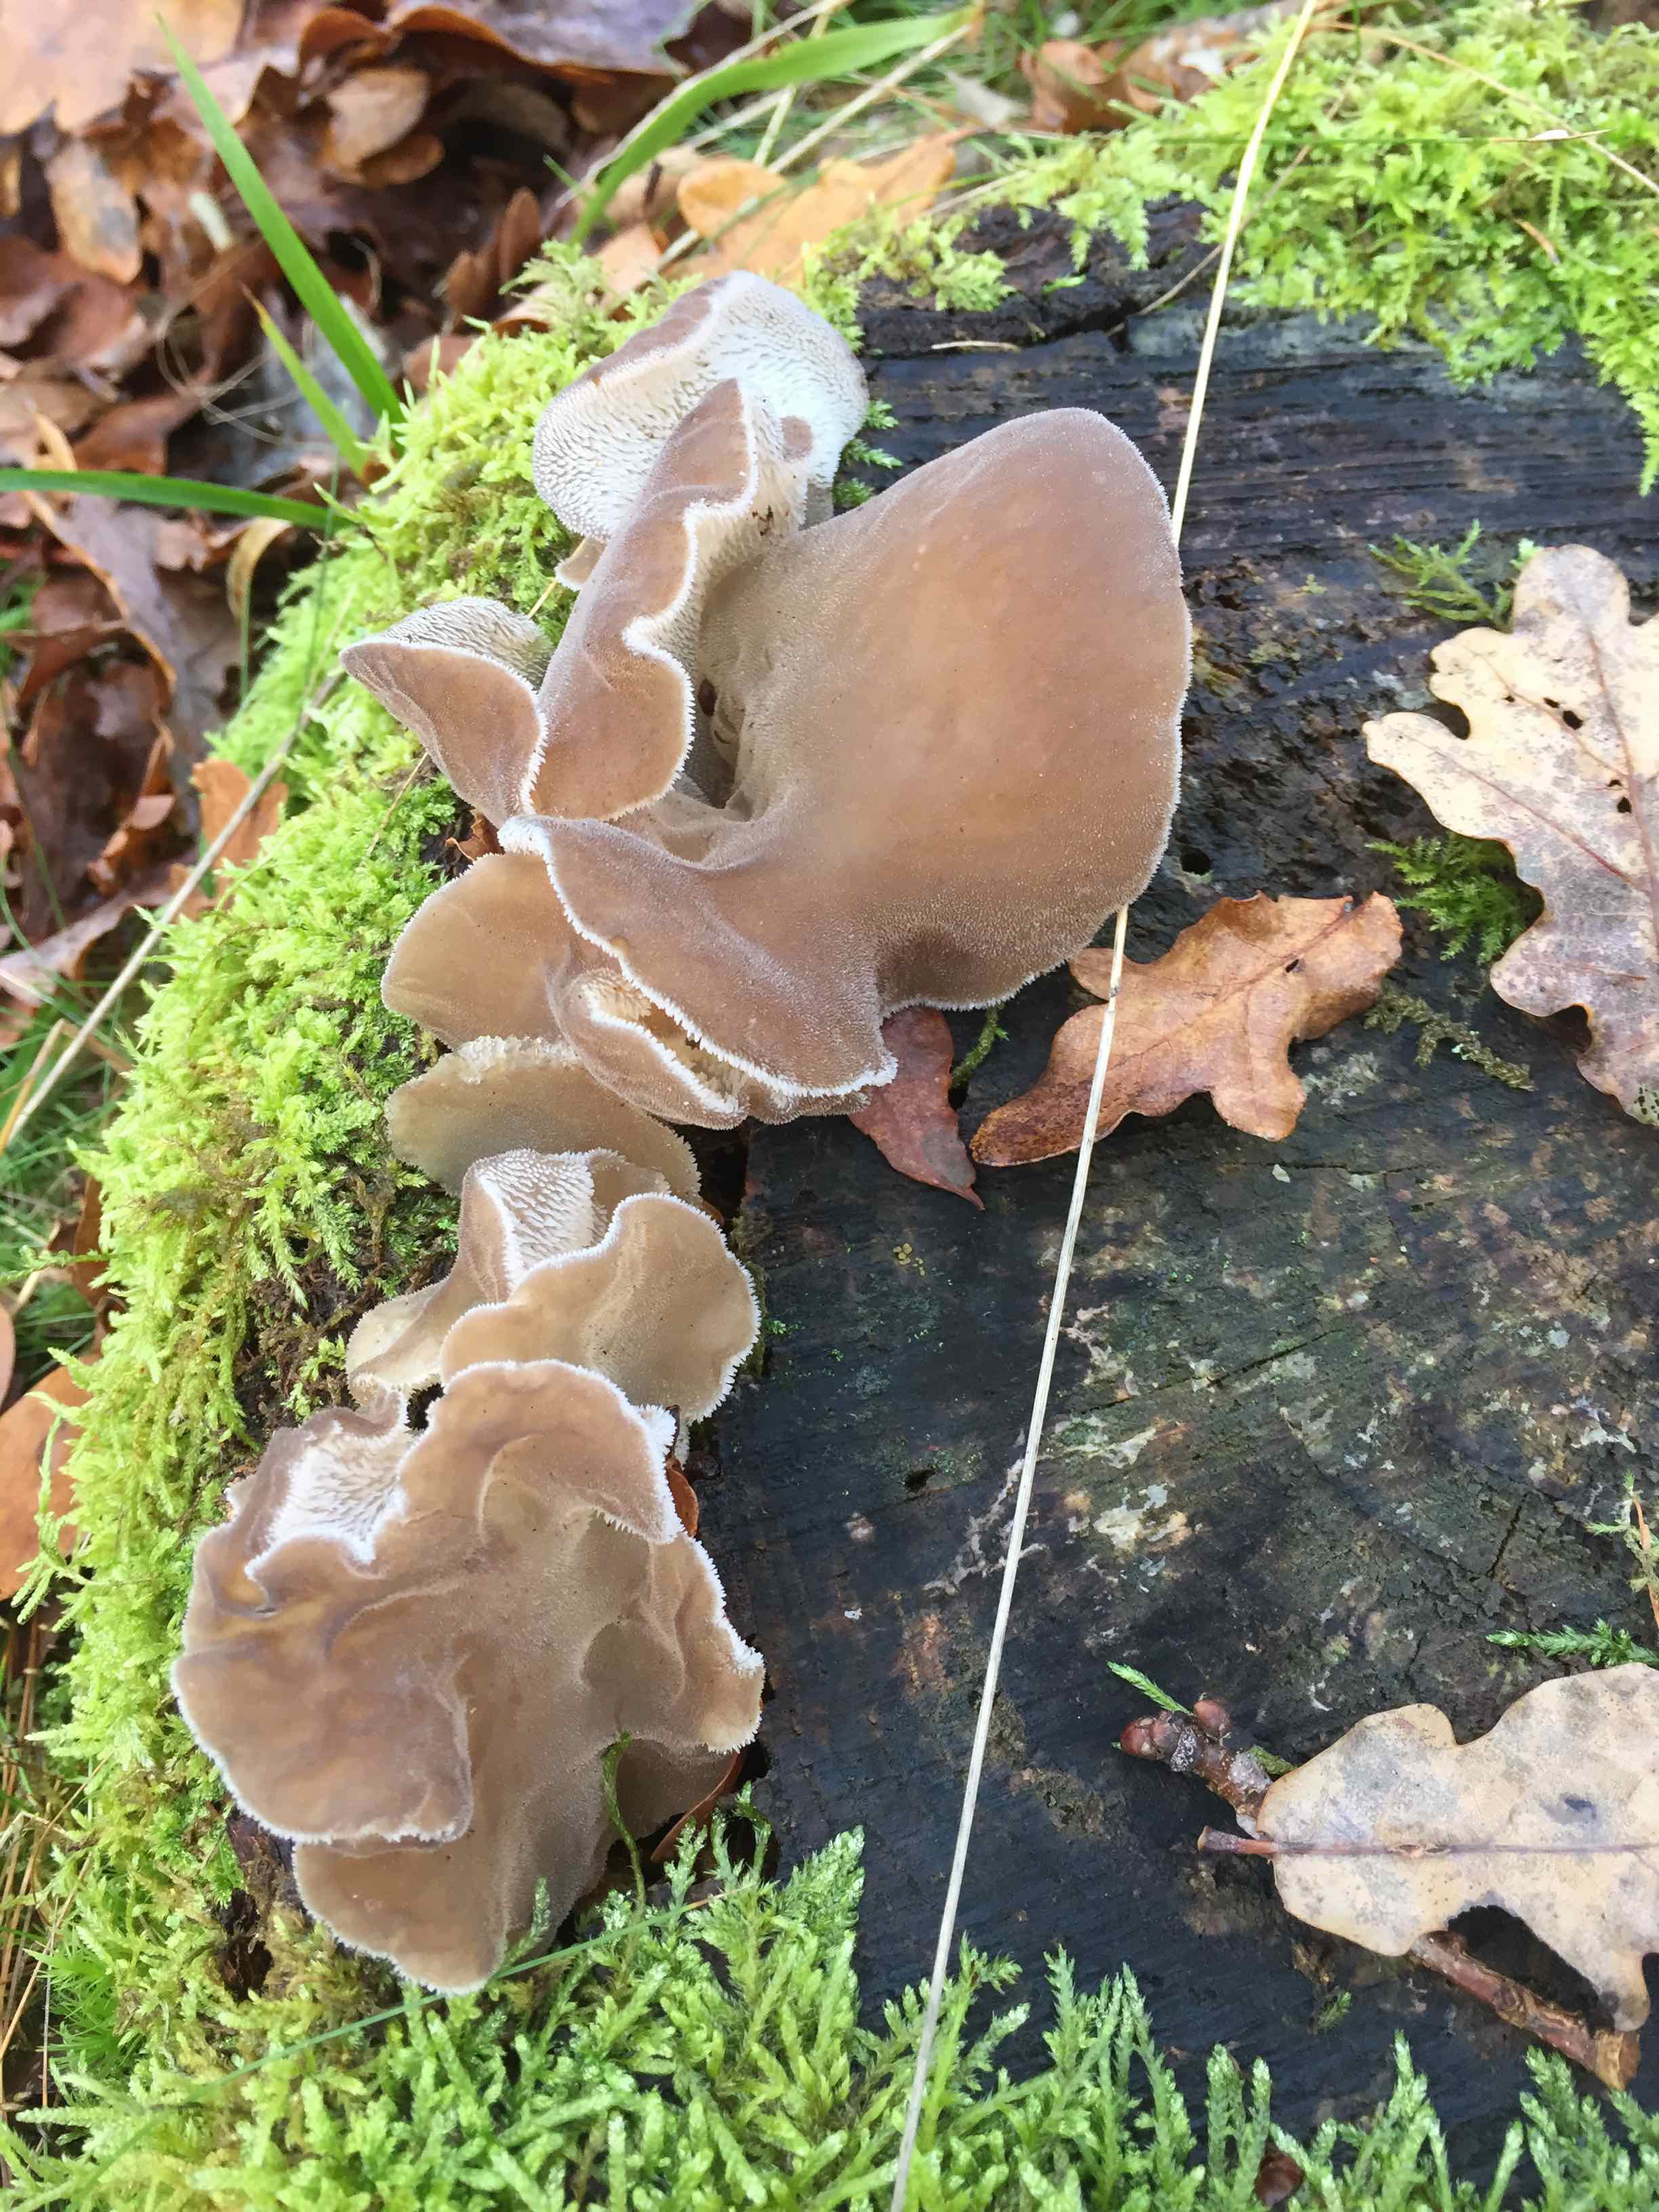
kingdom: Fungi
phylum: Basidiomycota
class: Agaricomycetes
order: Auriculariales
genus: Pseudohydnum
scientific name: Pseudohydnum gelatinosum
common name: bævretand
